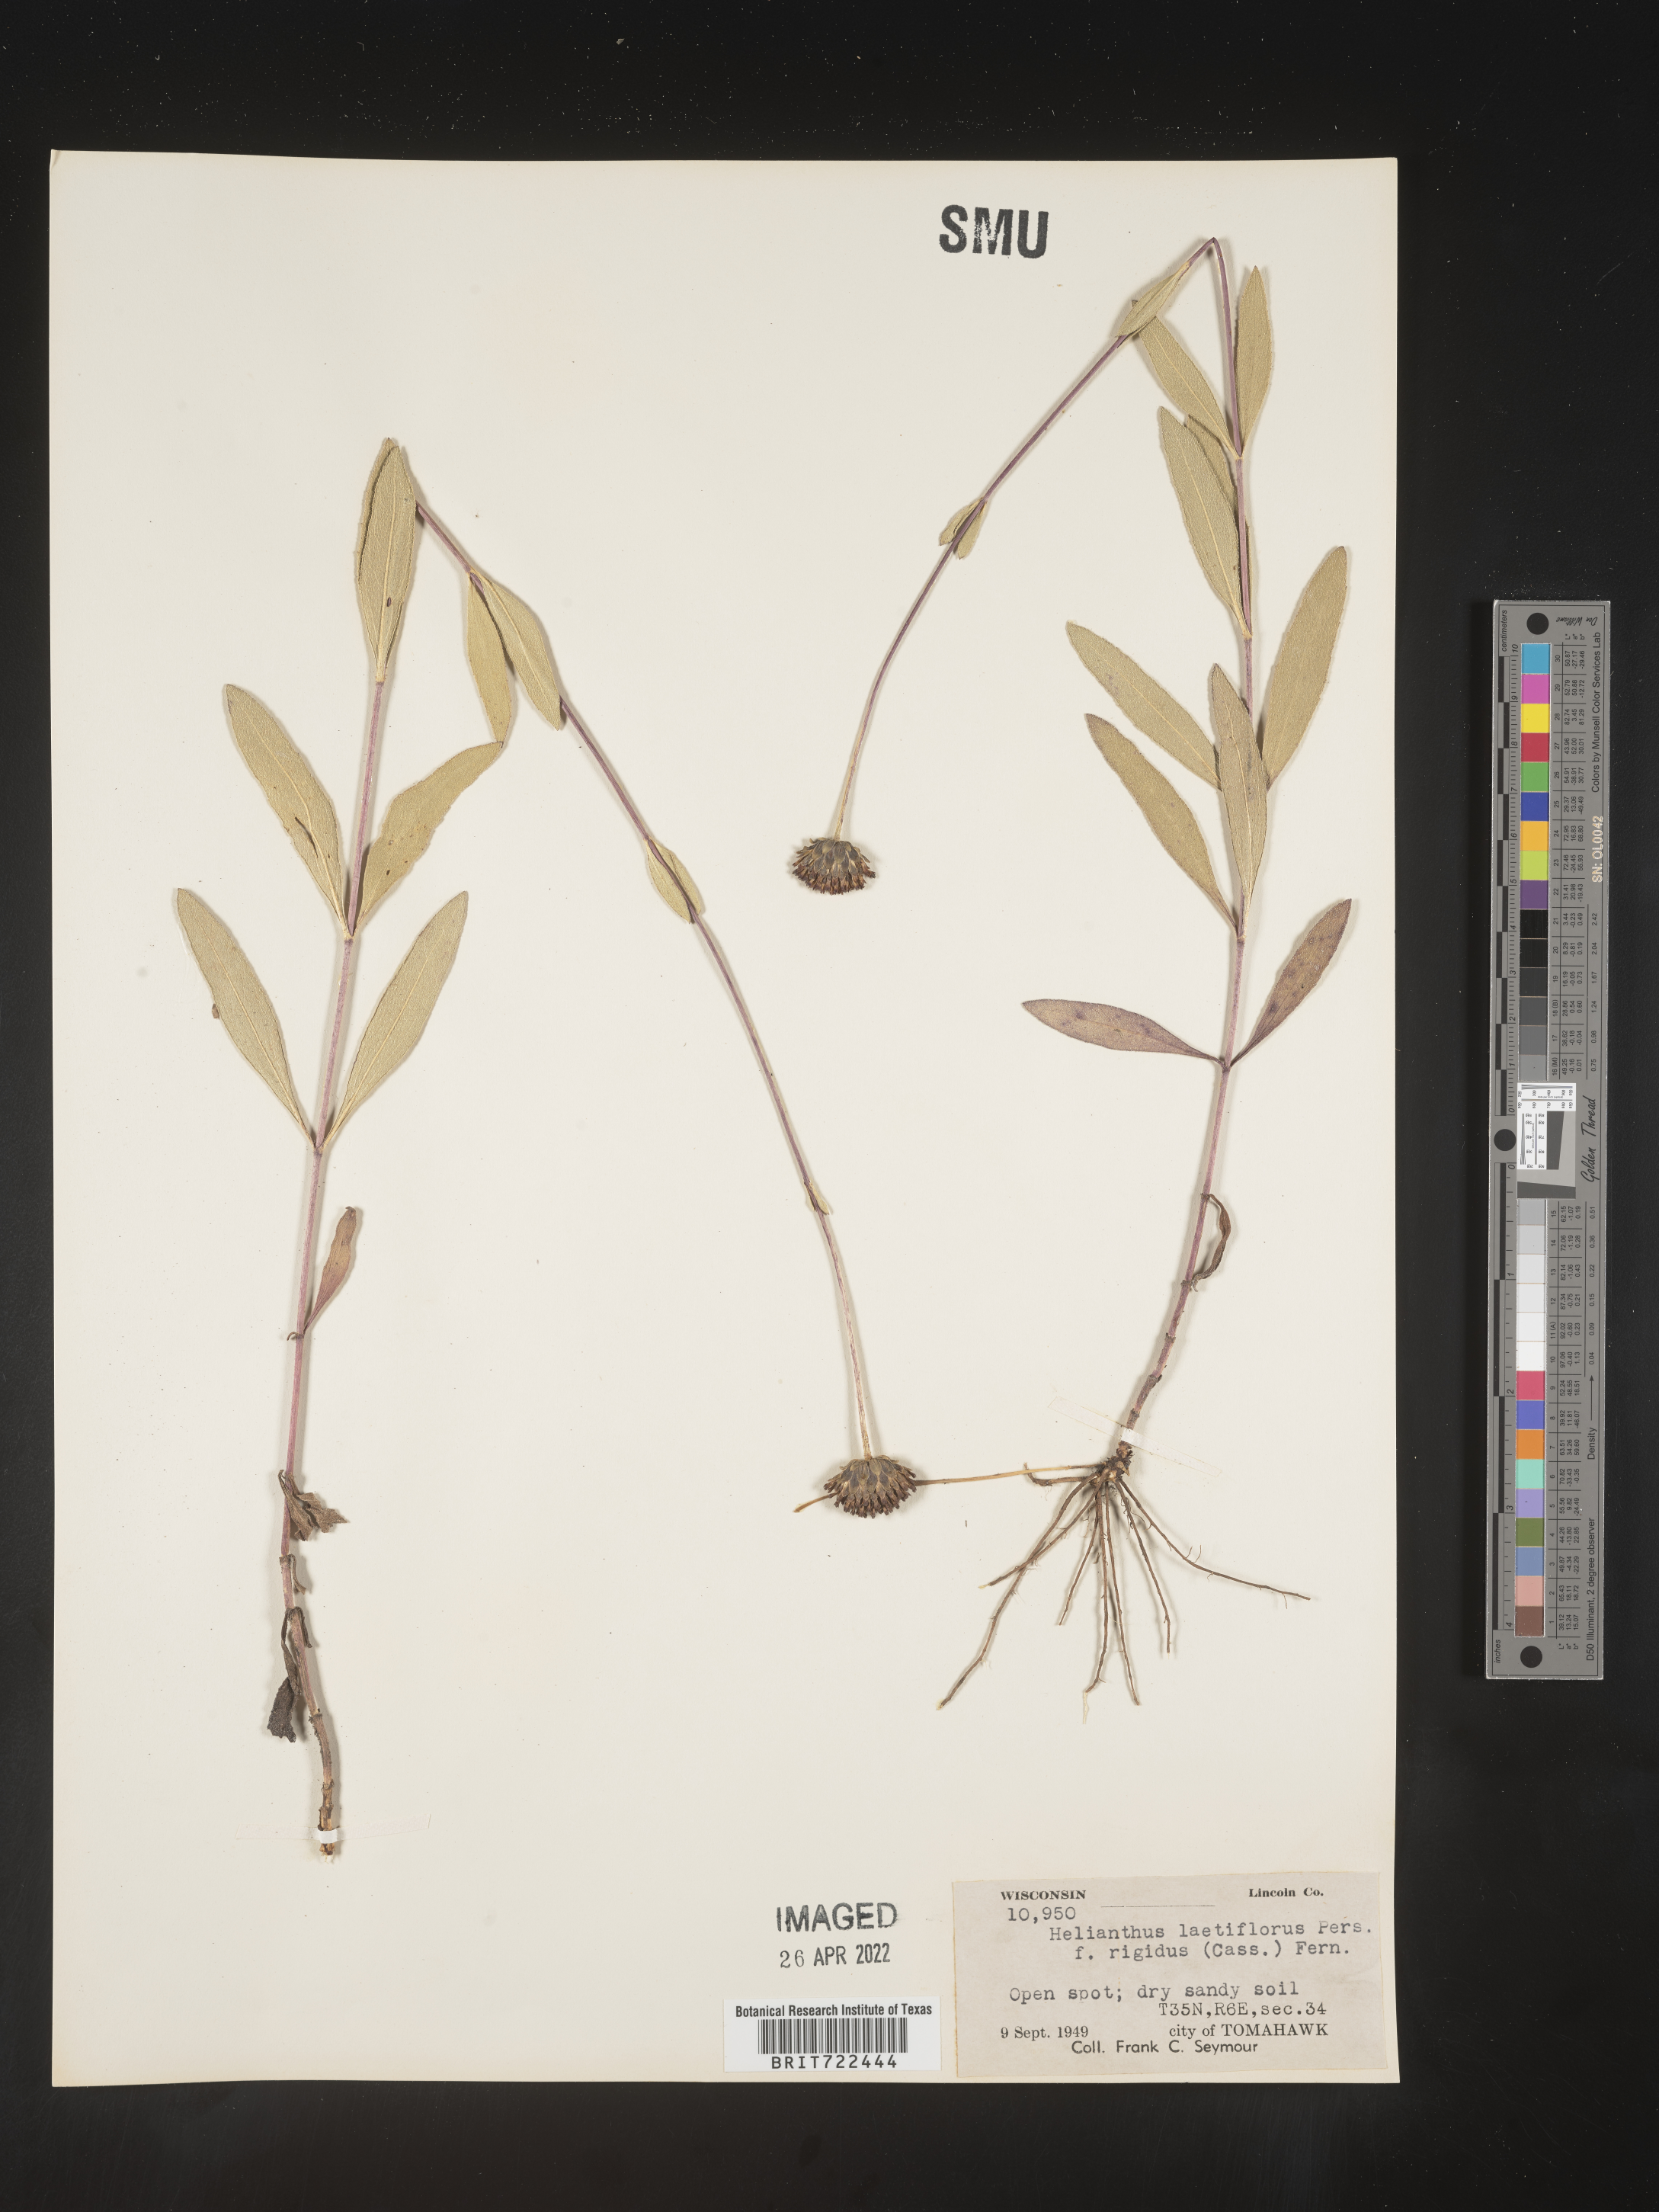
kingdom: Plantae
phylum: Tracheophyta
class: Magnoliopsida
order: Asterales
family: Asteraceae
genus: Helianthus
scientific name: Helianthus laetiflorus
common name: Perennial sunflower
